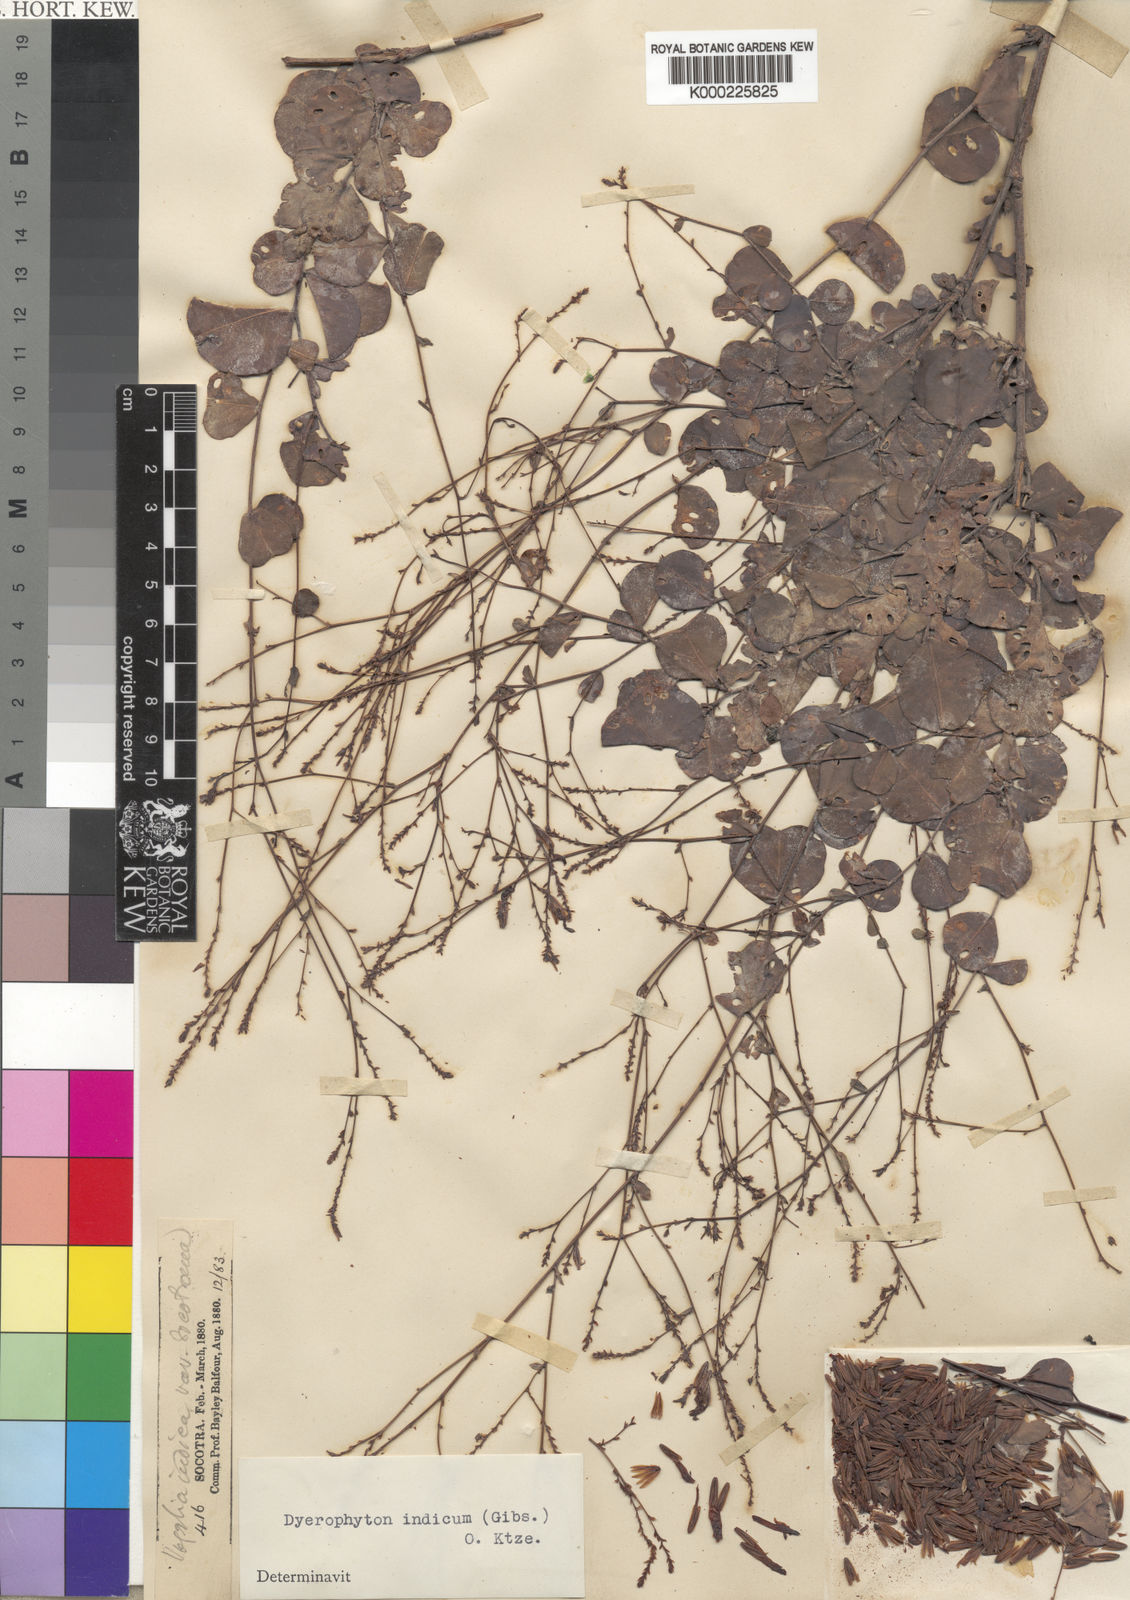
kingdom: Plantae
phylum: Tracheophyta
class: Magnoliopsida
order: Caryophyllales
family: Plumbaginaceae
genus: Dyerophytum
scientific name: Dyerophytum indicum
